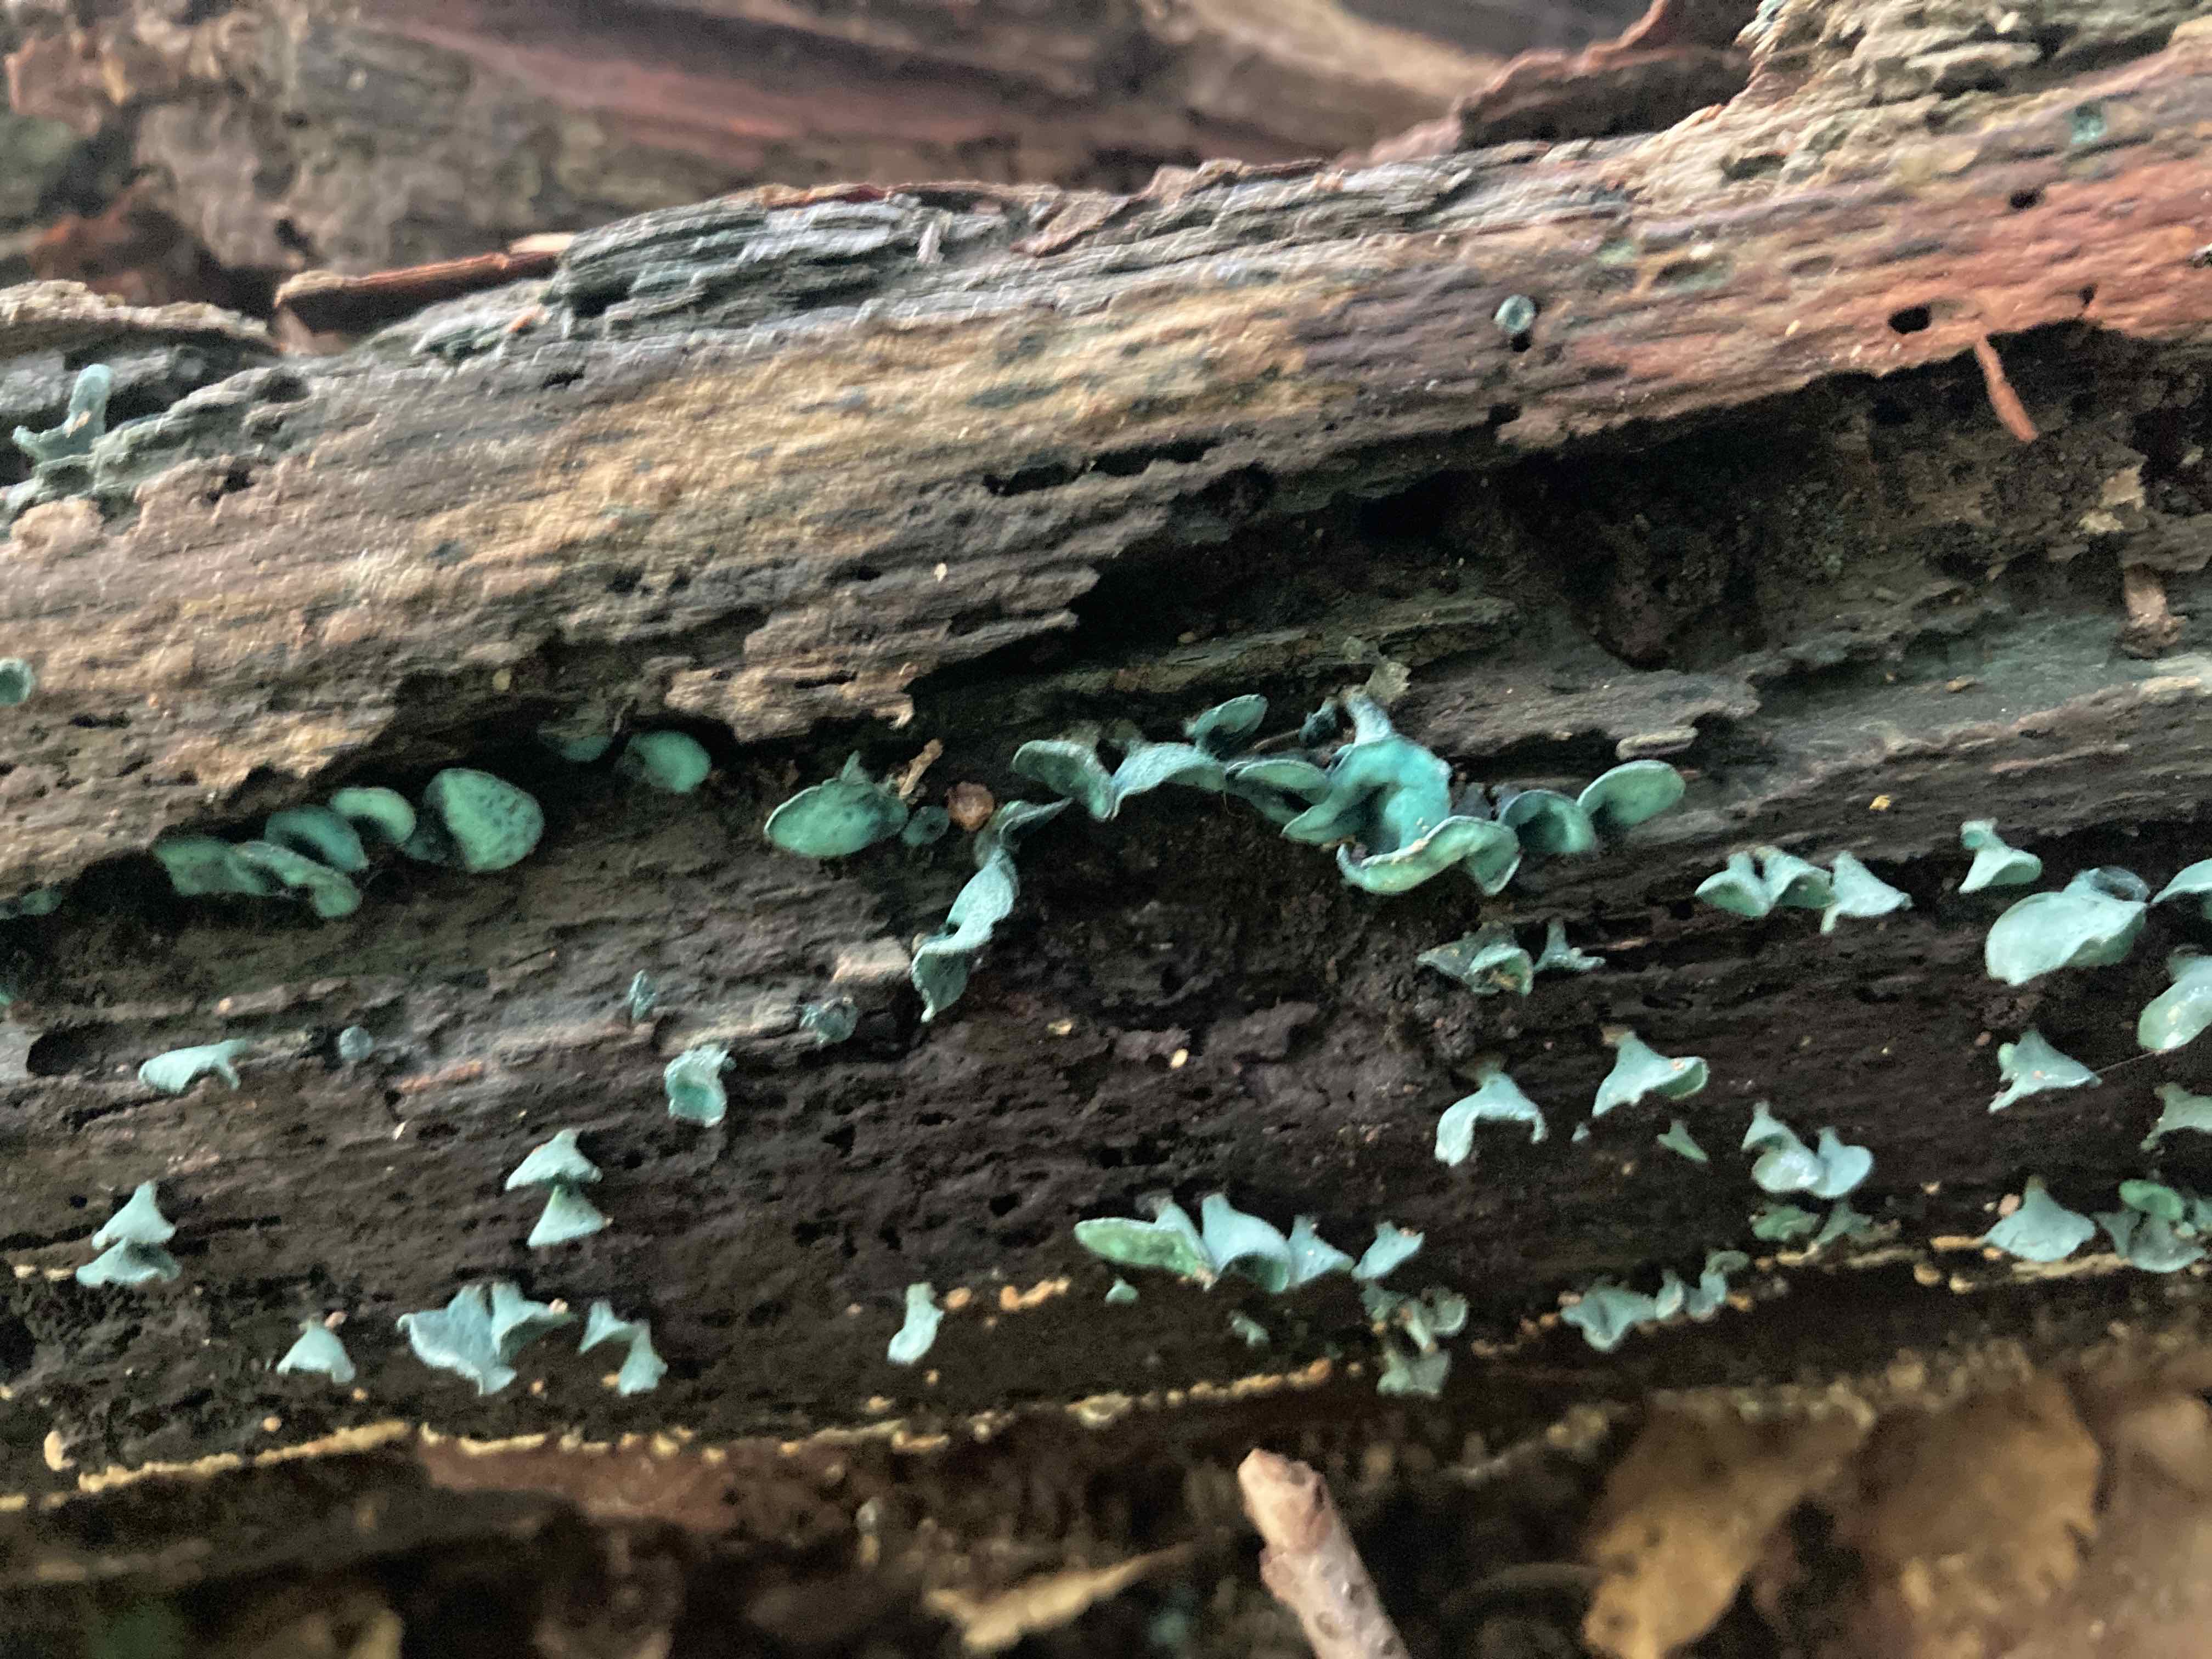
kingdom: Fungi
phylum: Ascomycota
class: Leotiomycetes
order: Helotiales
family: Chlorociboriaceae
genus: Chlorociboria
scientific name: Chlorociboria aeruginascens
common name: almindelig grønskive
